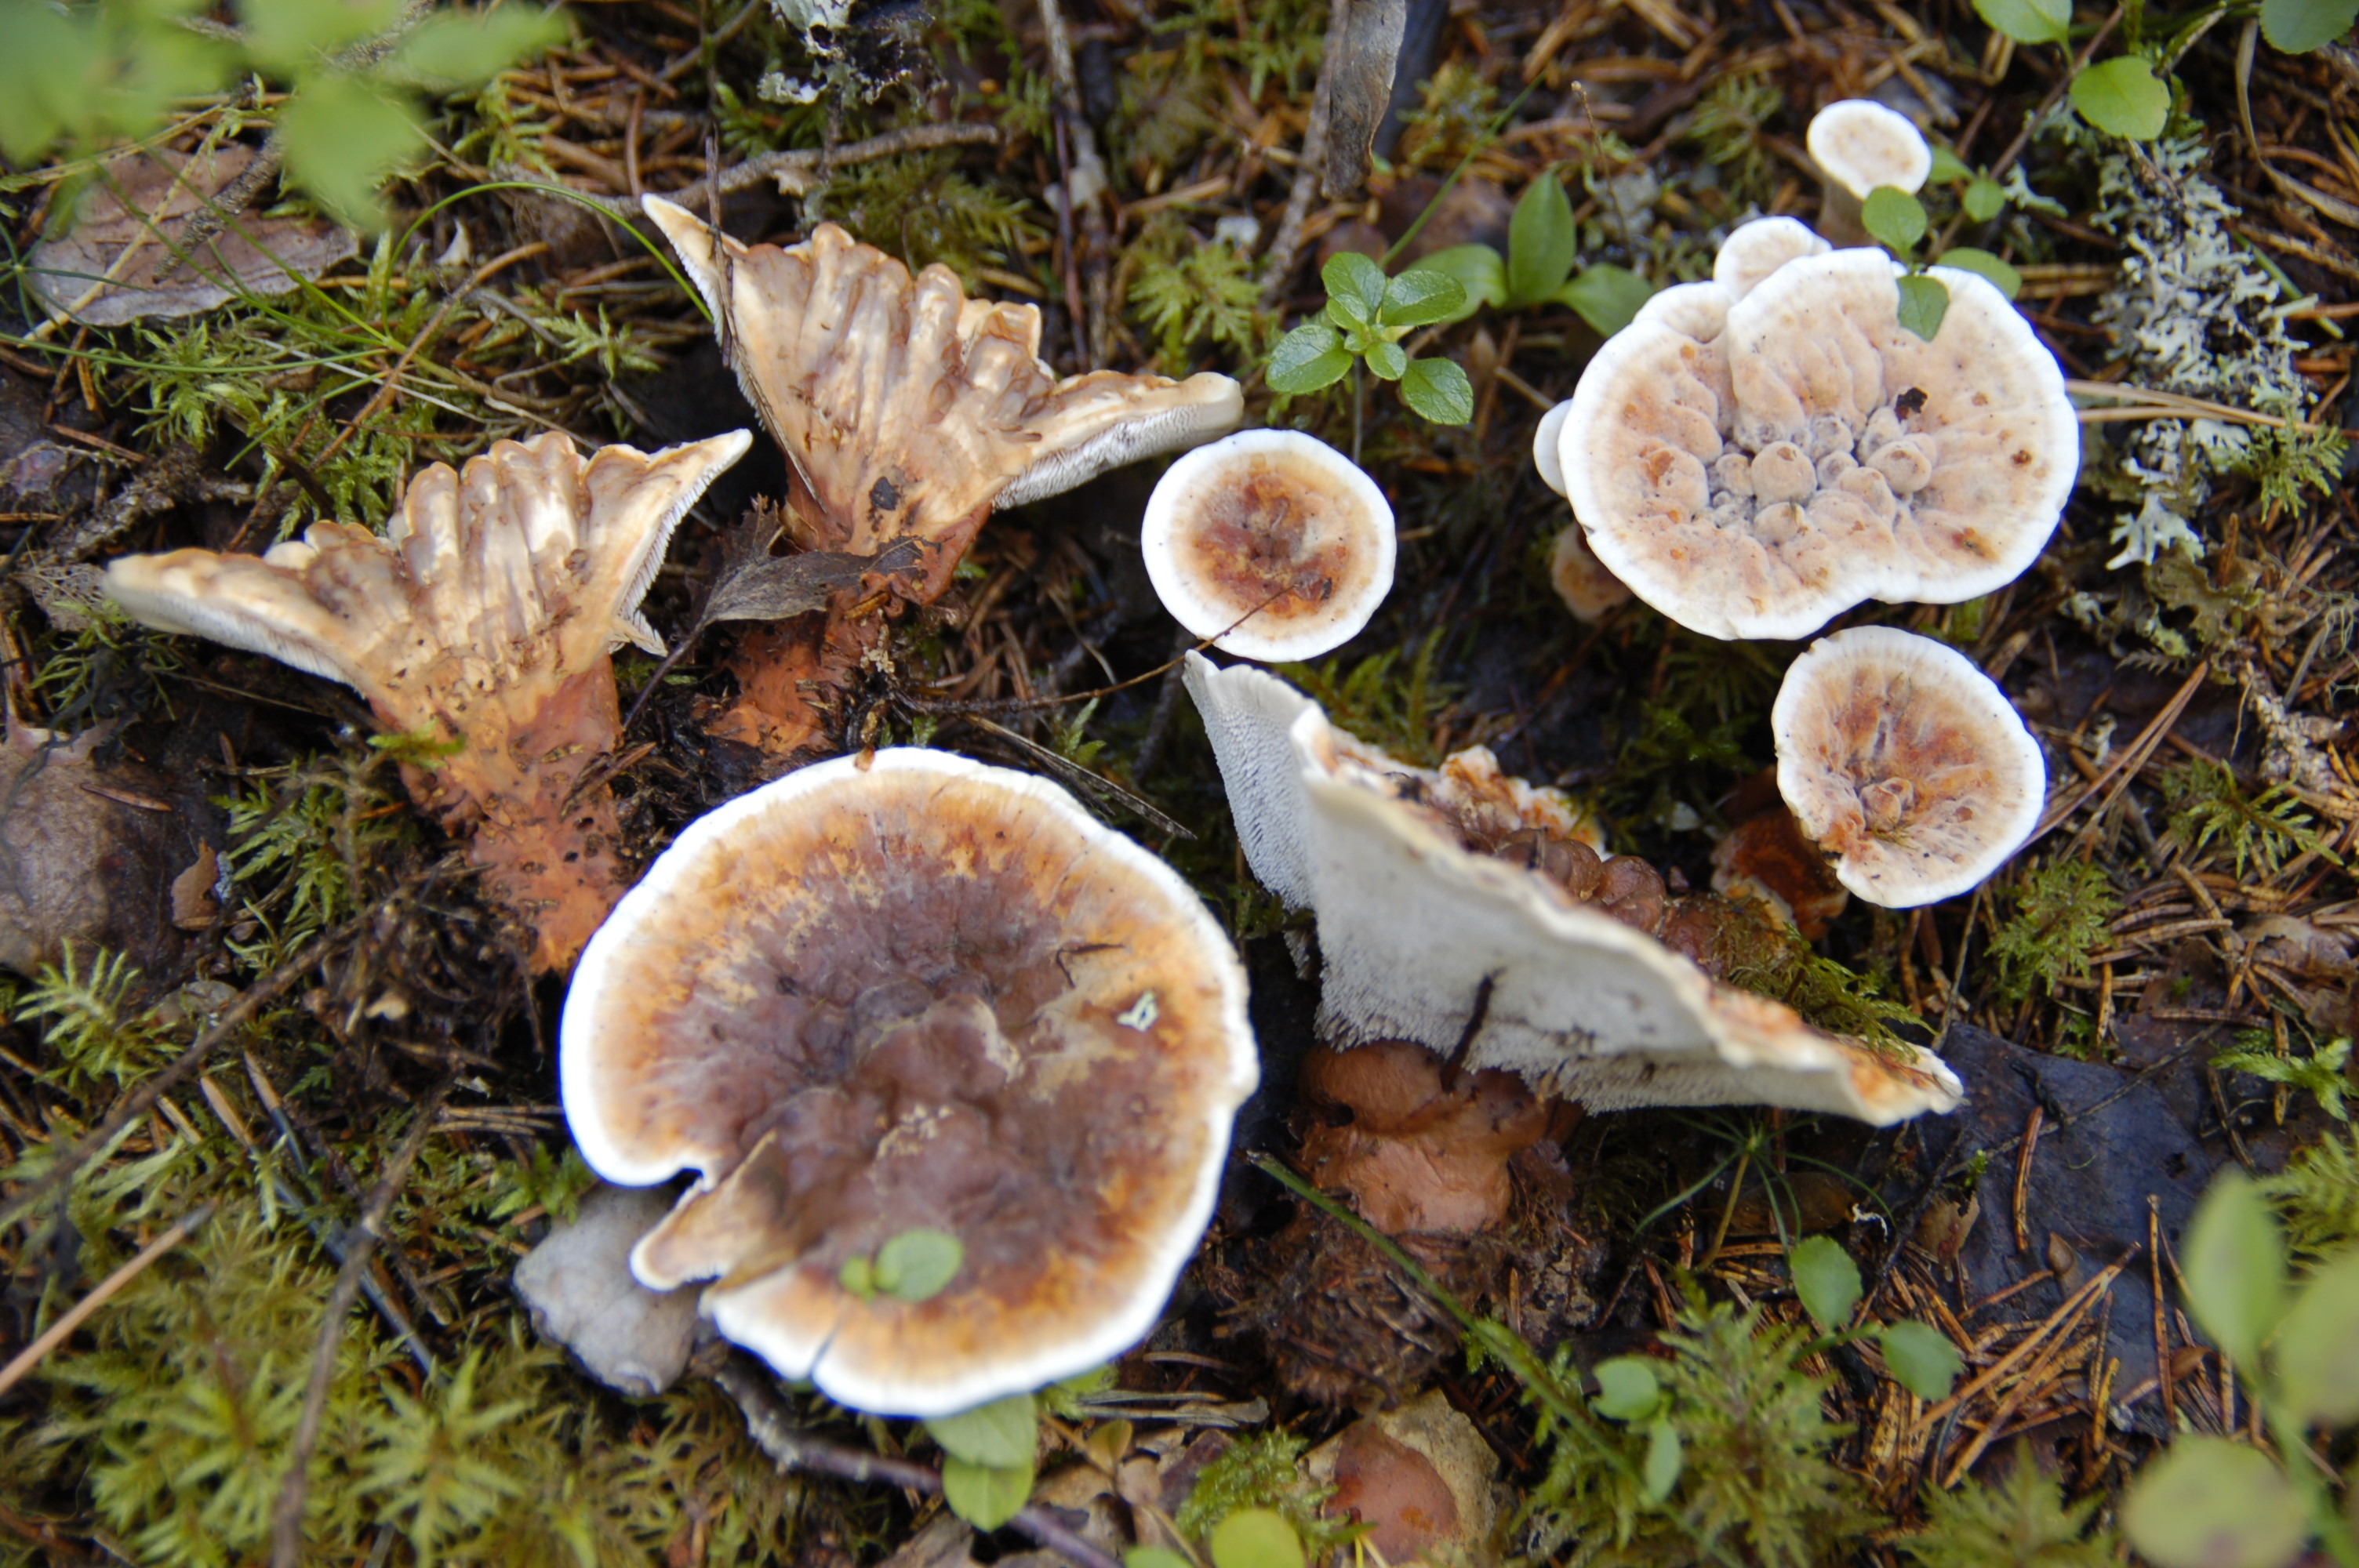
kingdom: Fungi
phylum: Basidiomycota
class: Agaricomycetes
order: Thelephorales
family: Bankeraceae
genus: Hydnellum
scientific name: Hydnellum aurantiacum
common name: Orange tooth
